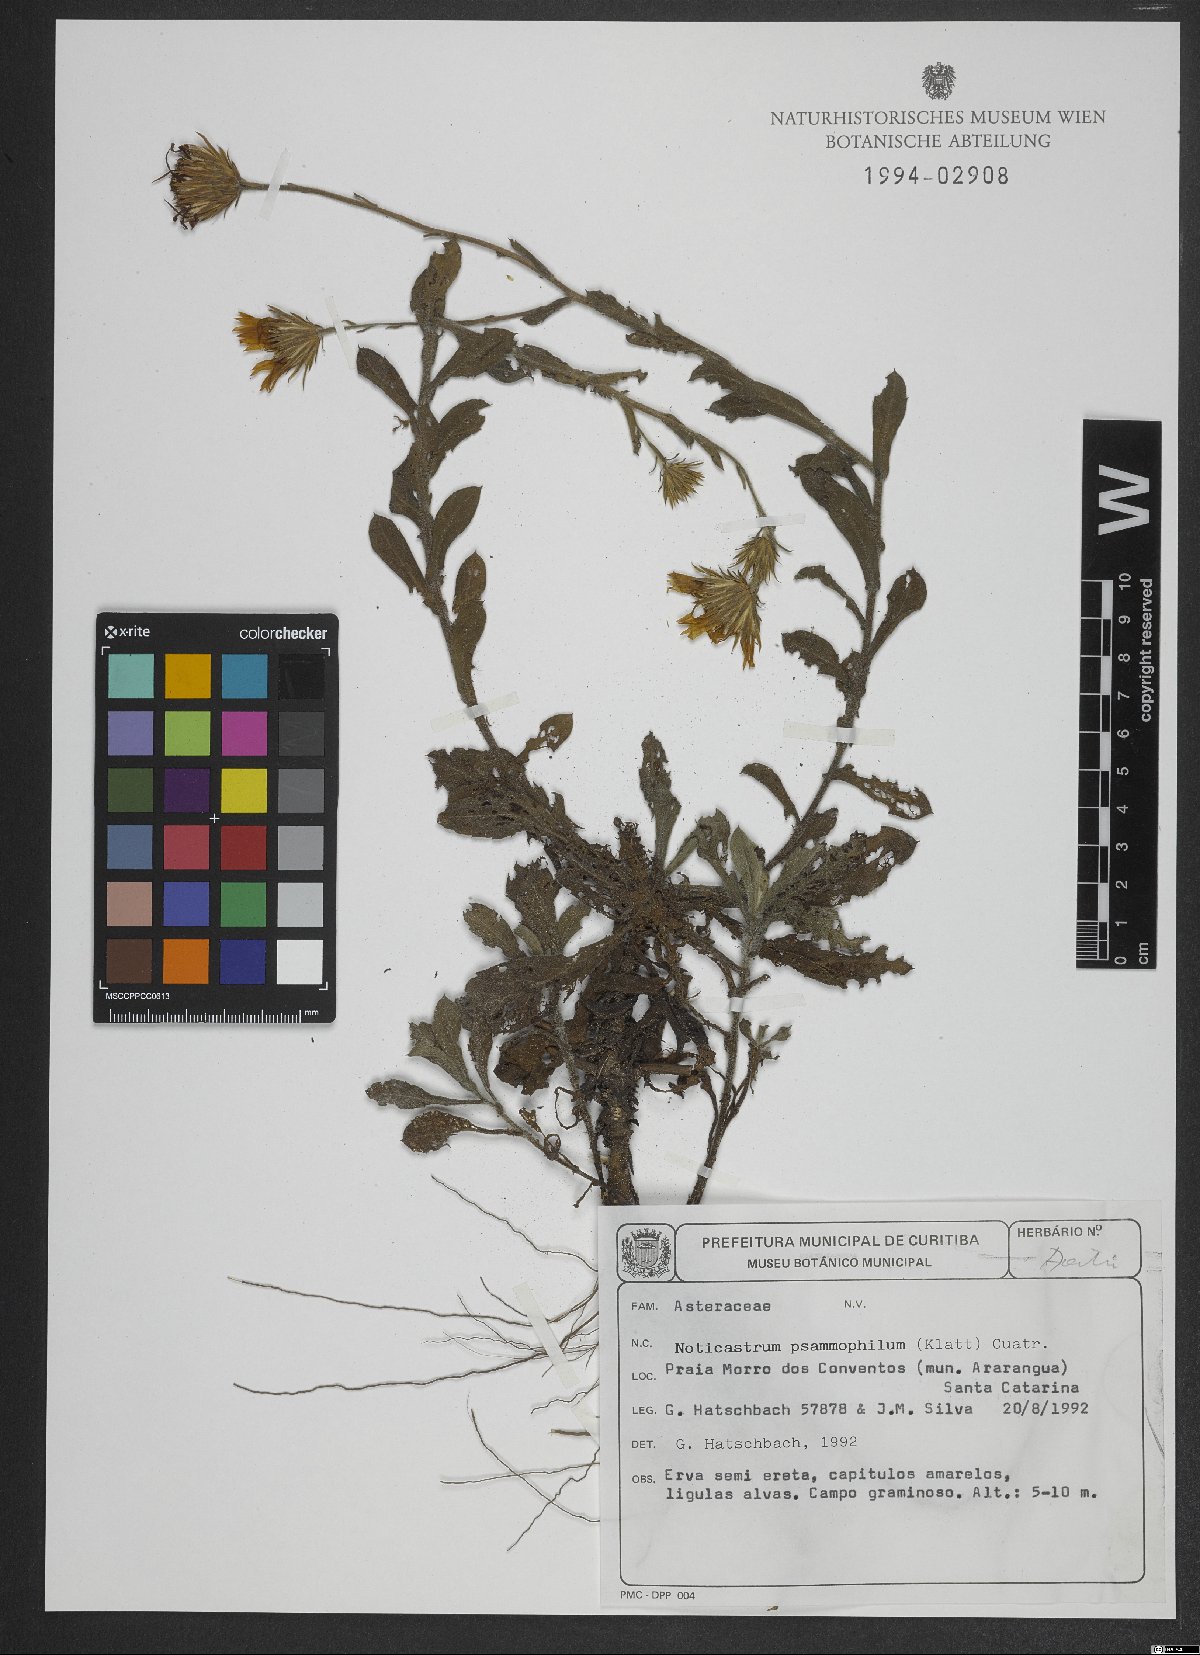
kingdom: Plantae
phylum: Tracheophyta
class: Magnoliopsida
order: Asterales
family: Asteraceae
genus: Noticastrum
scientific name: Noticastrum psammophilum
